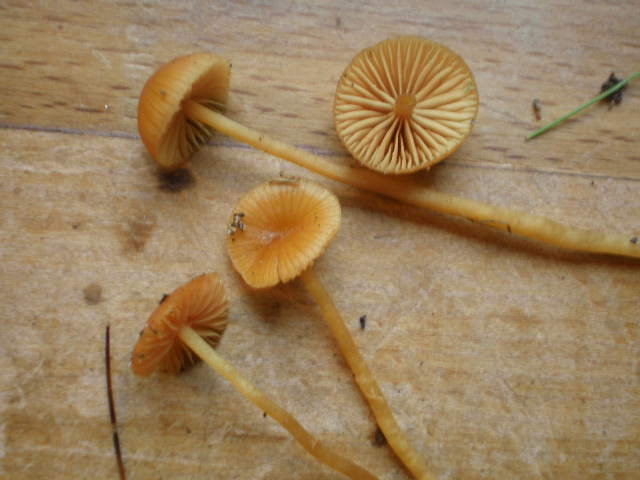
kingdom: Fungi
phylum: Basidiomycota
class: Agaricomycetes
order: Agaricales
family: Hymenogastraceae
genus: Galerina
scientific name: Galerina pumila
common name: honninggul hjelmhat
